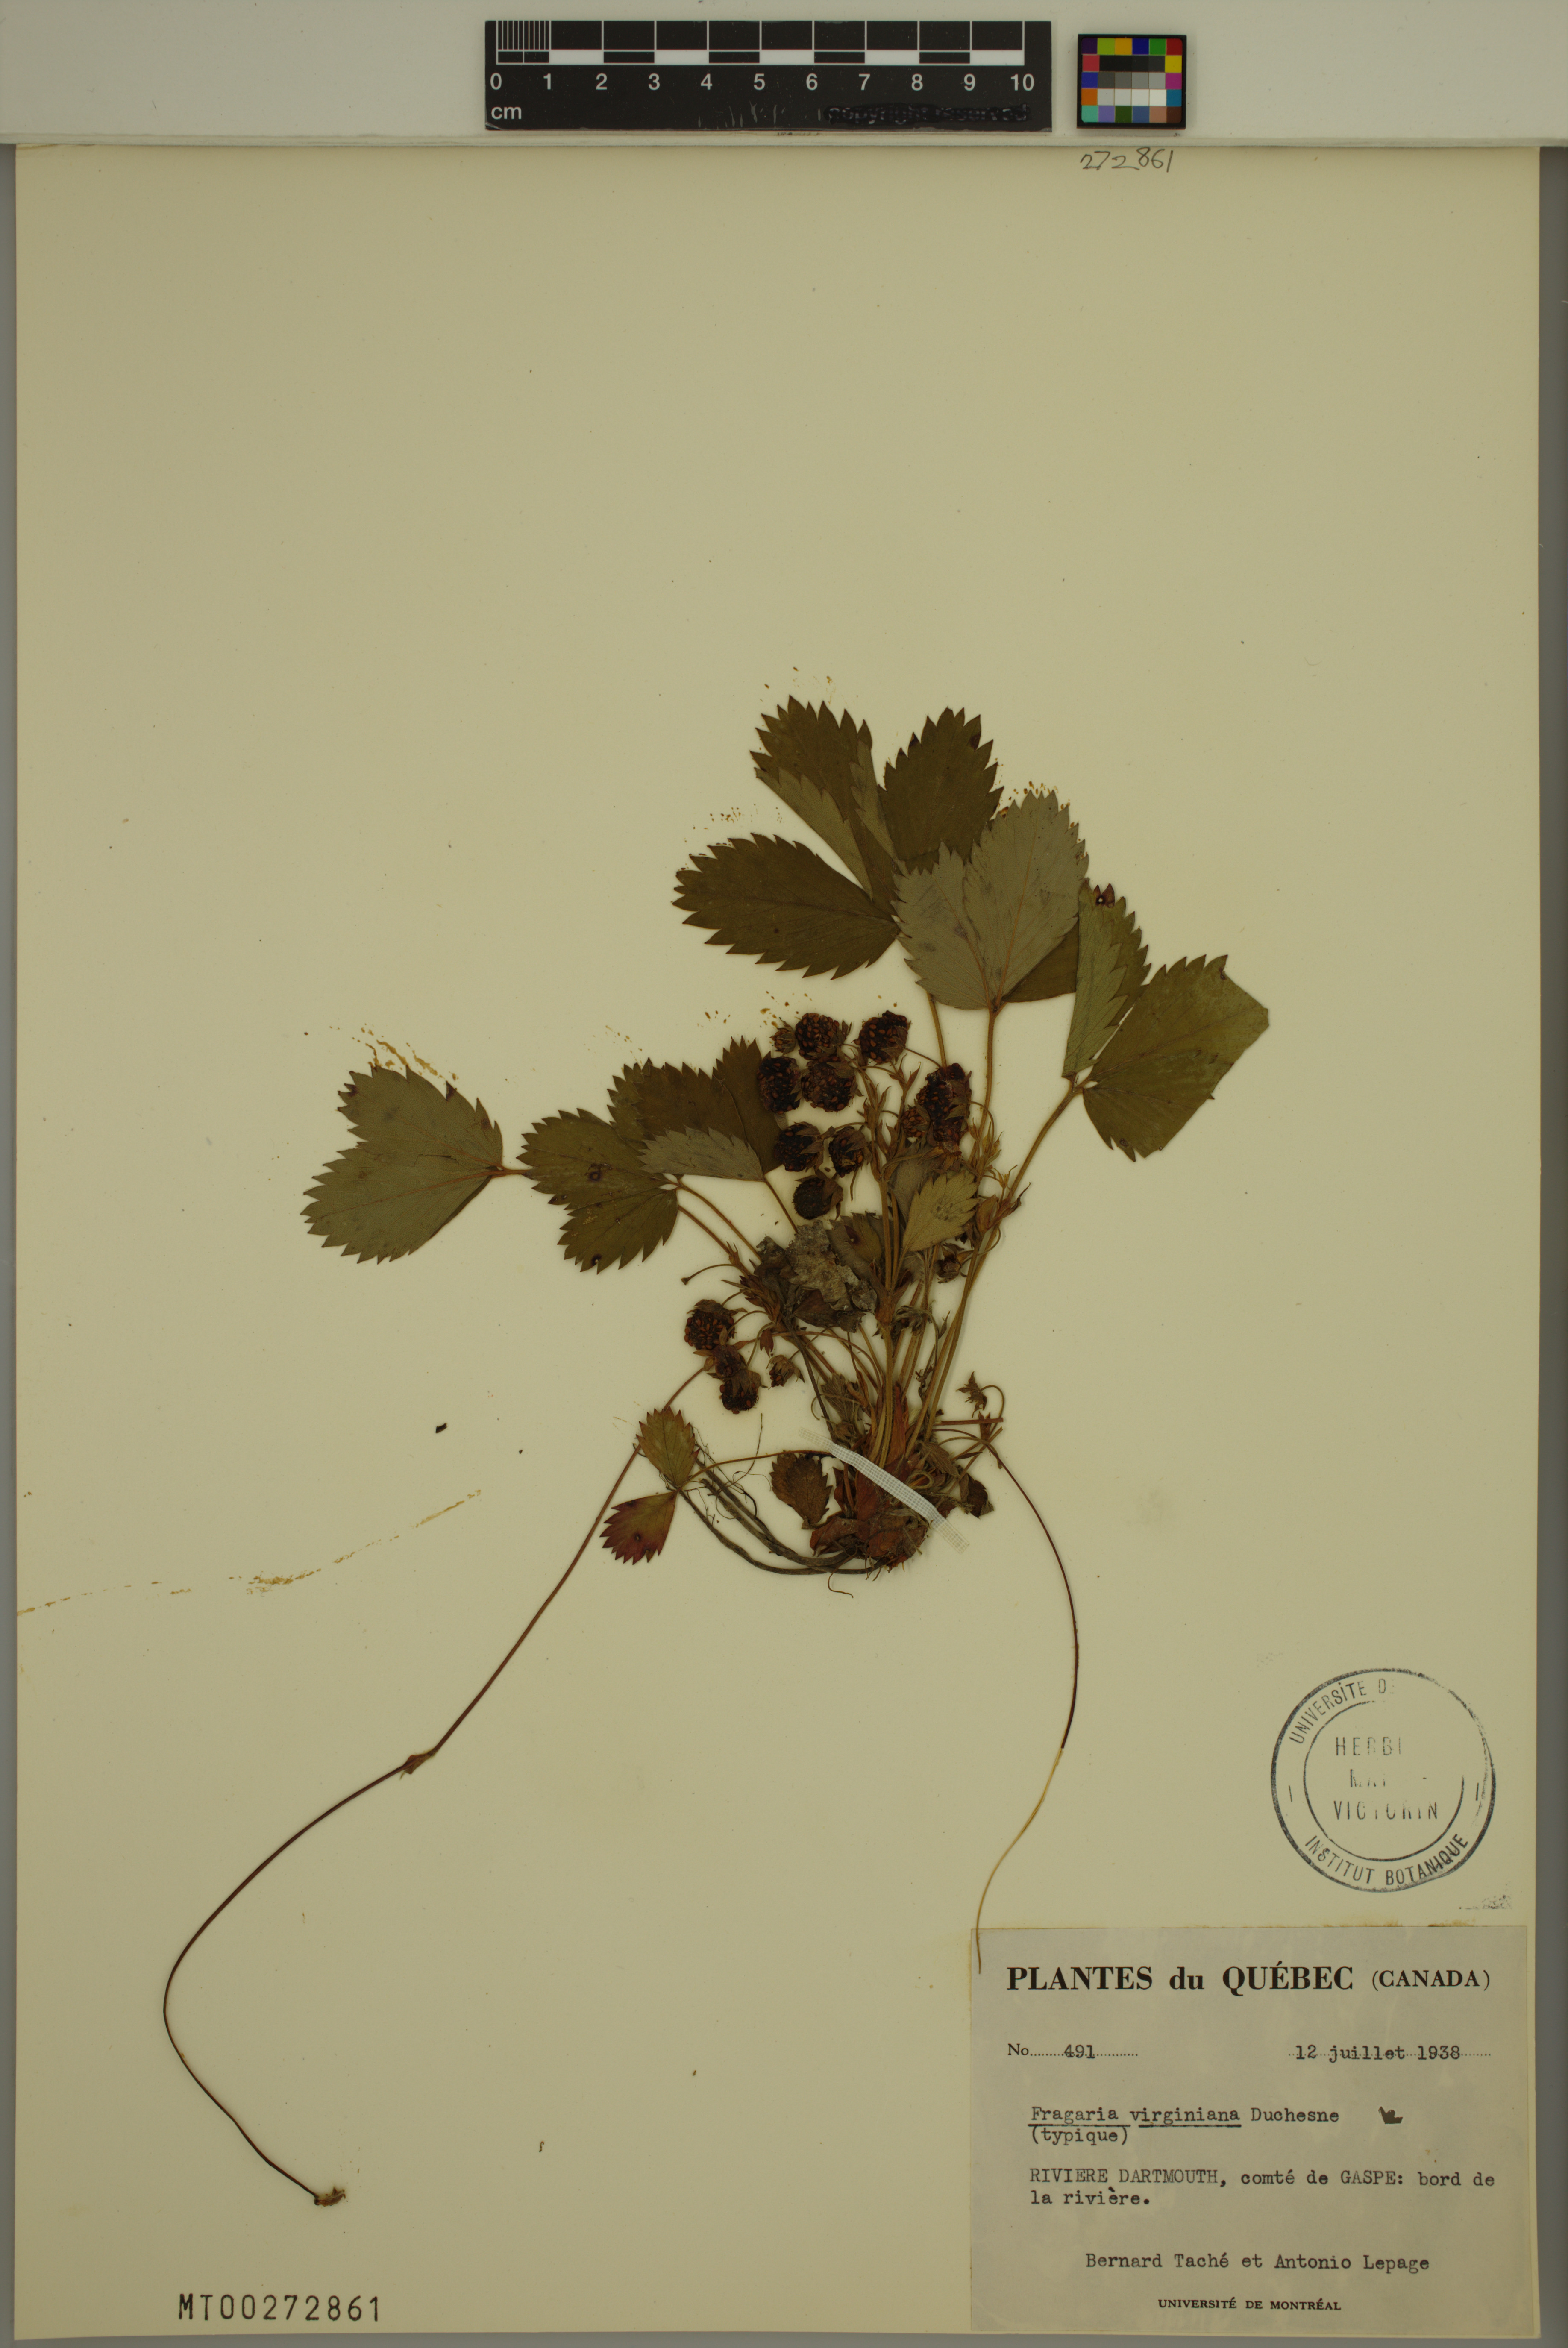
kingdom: Plantae
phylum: Tracheophyta
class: Magnoliopsida
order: Rosales
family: Rosaceae
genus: Fragaria
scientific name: Fragaria virginiana
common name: Thickleaved wild strawberry
